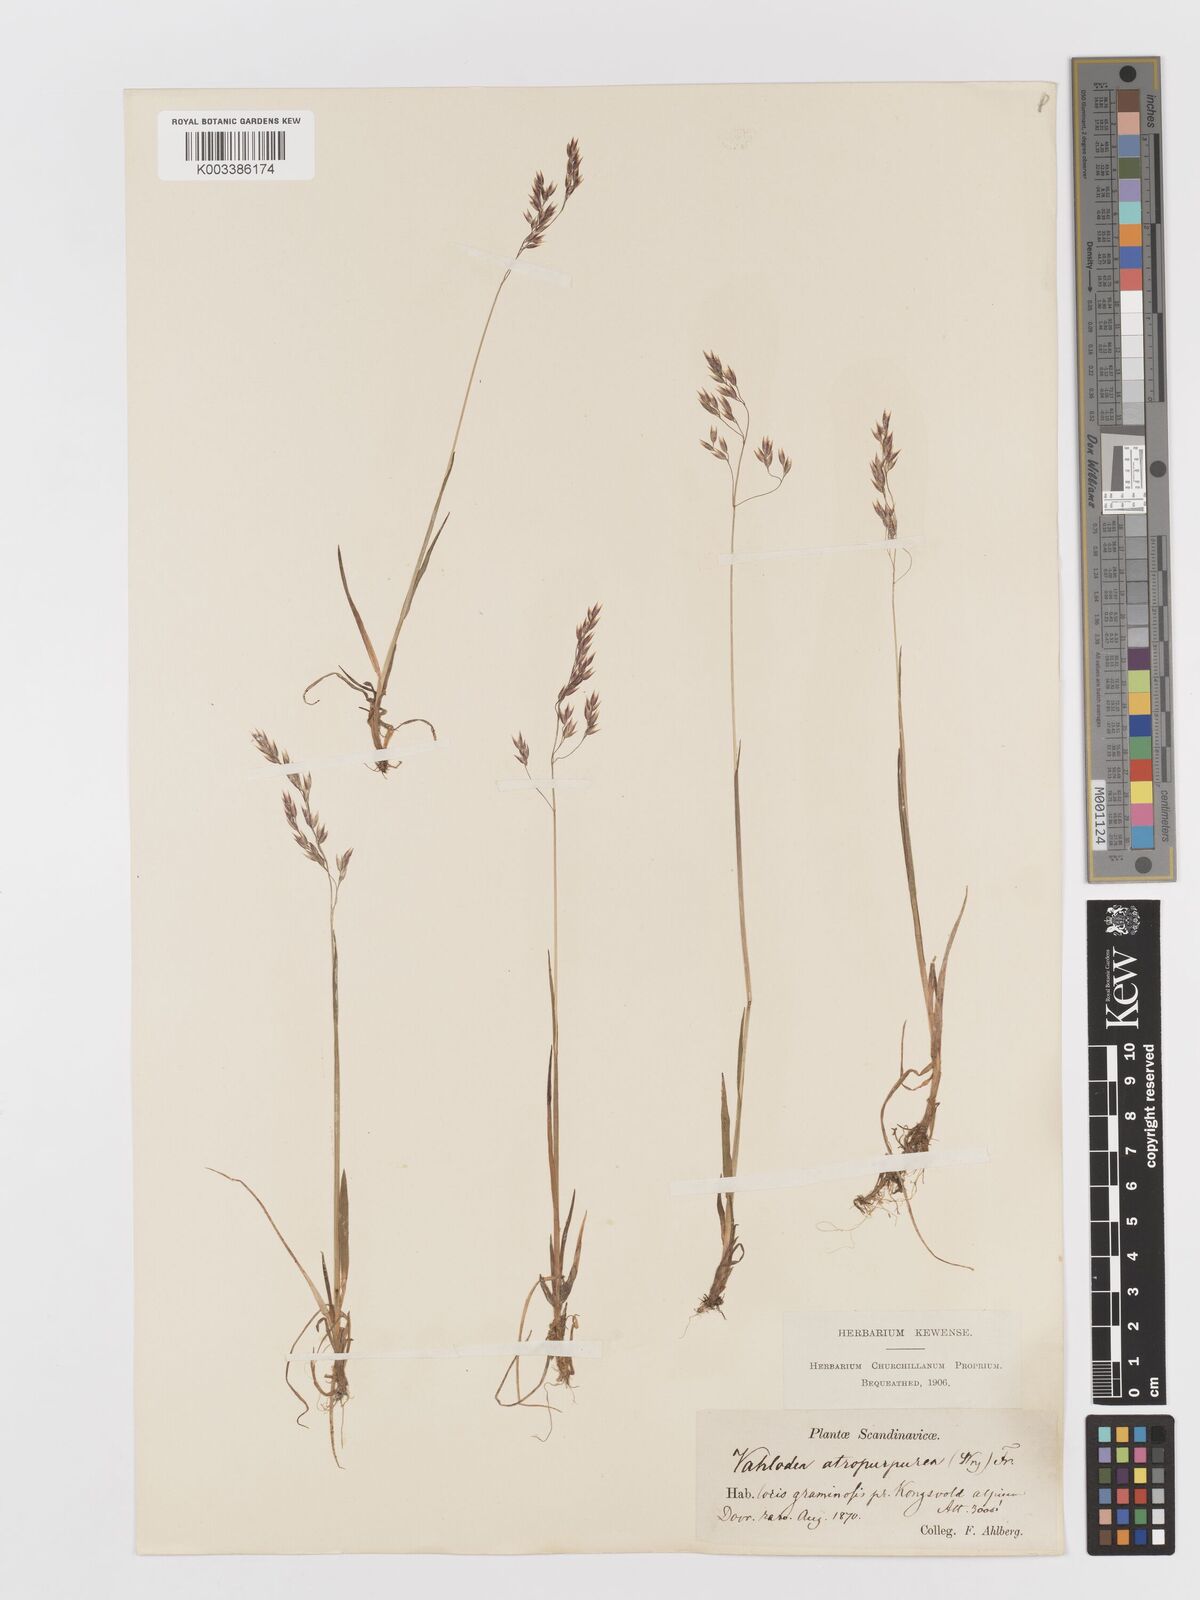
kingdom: Plantae
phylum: Tracheophyta
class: Liliopsida
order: Poales
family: Poaceae
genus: Vahlodea
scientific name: Vahlodea atropurpurea
